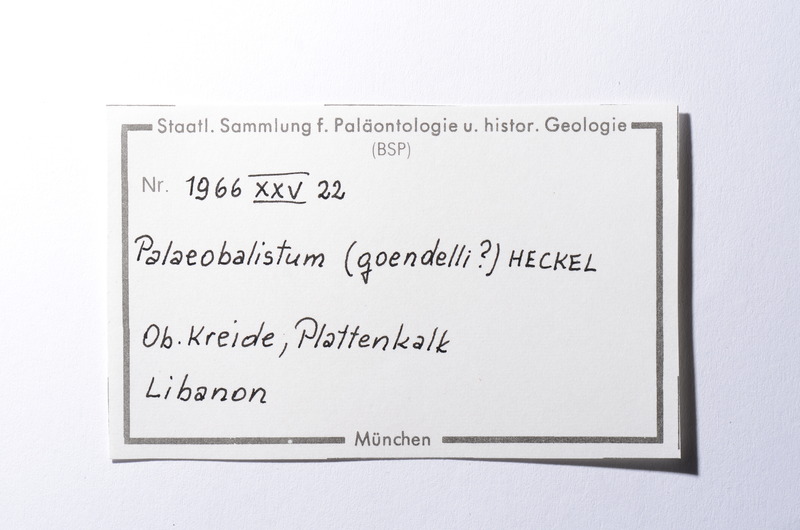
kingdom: Animalia
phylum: Chordata
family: Pycnodontes
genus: Palaeobalistum
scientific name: Palaeobalistum goedelii
